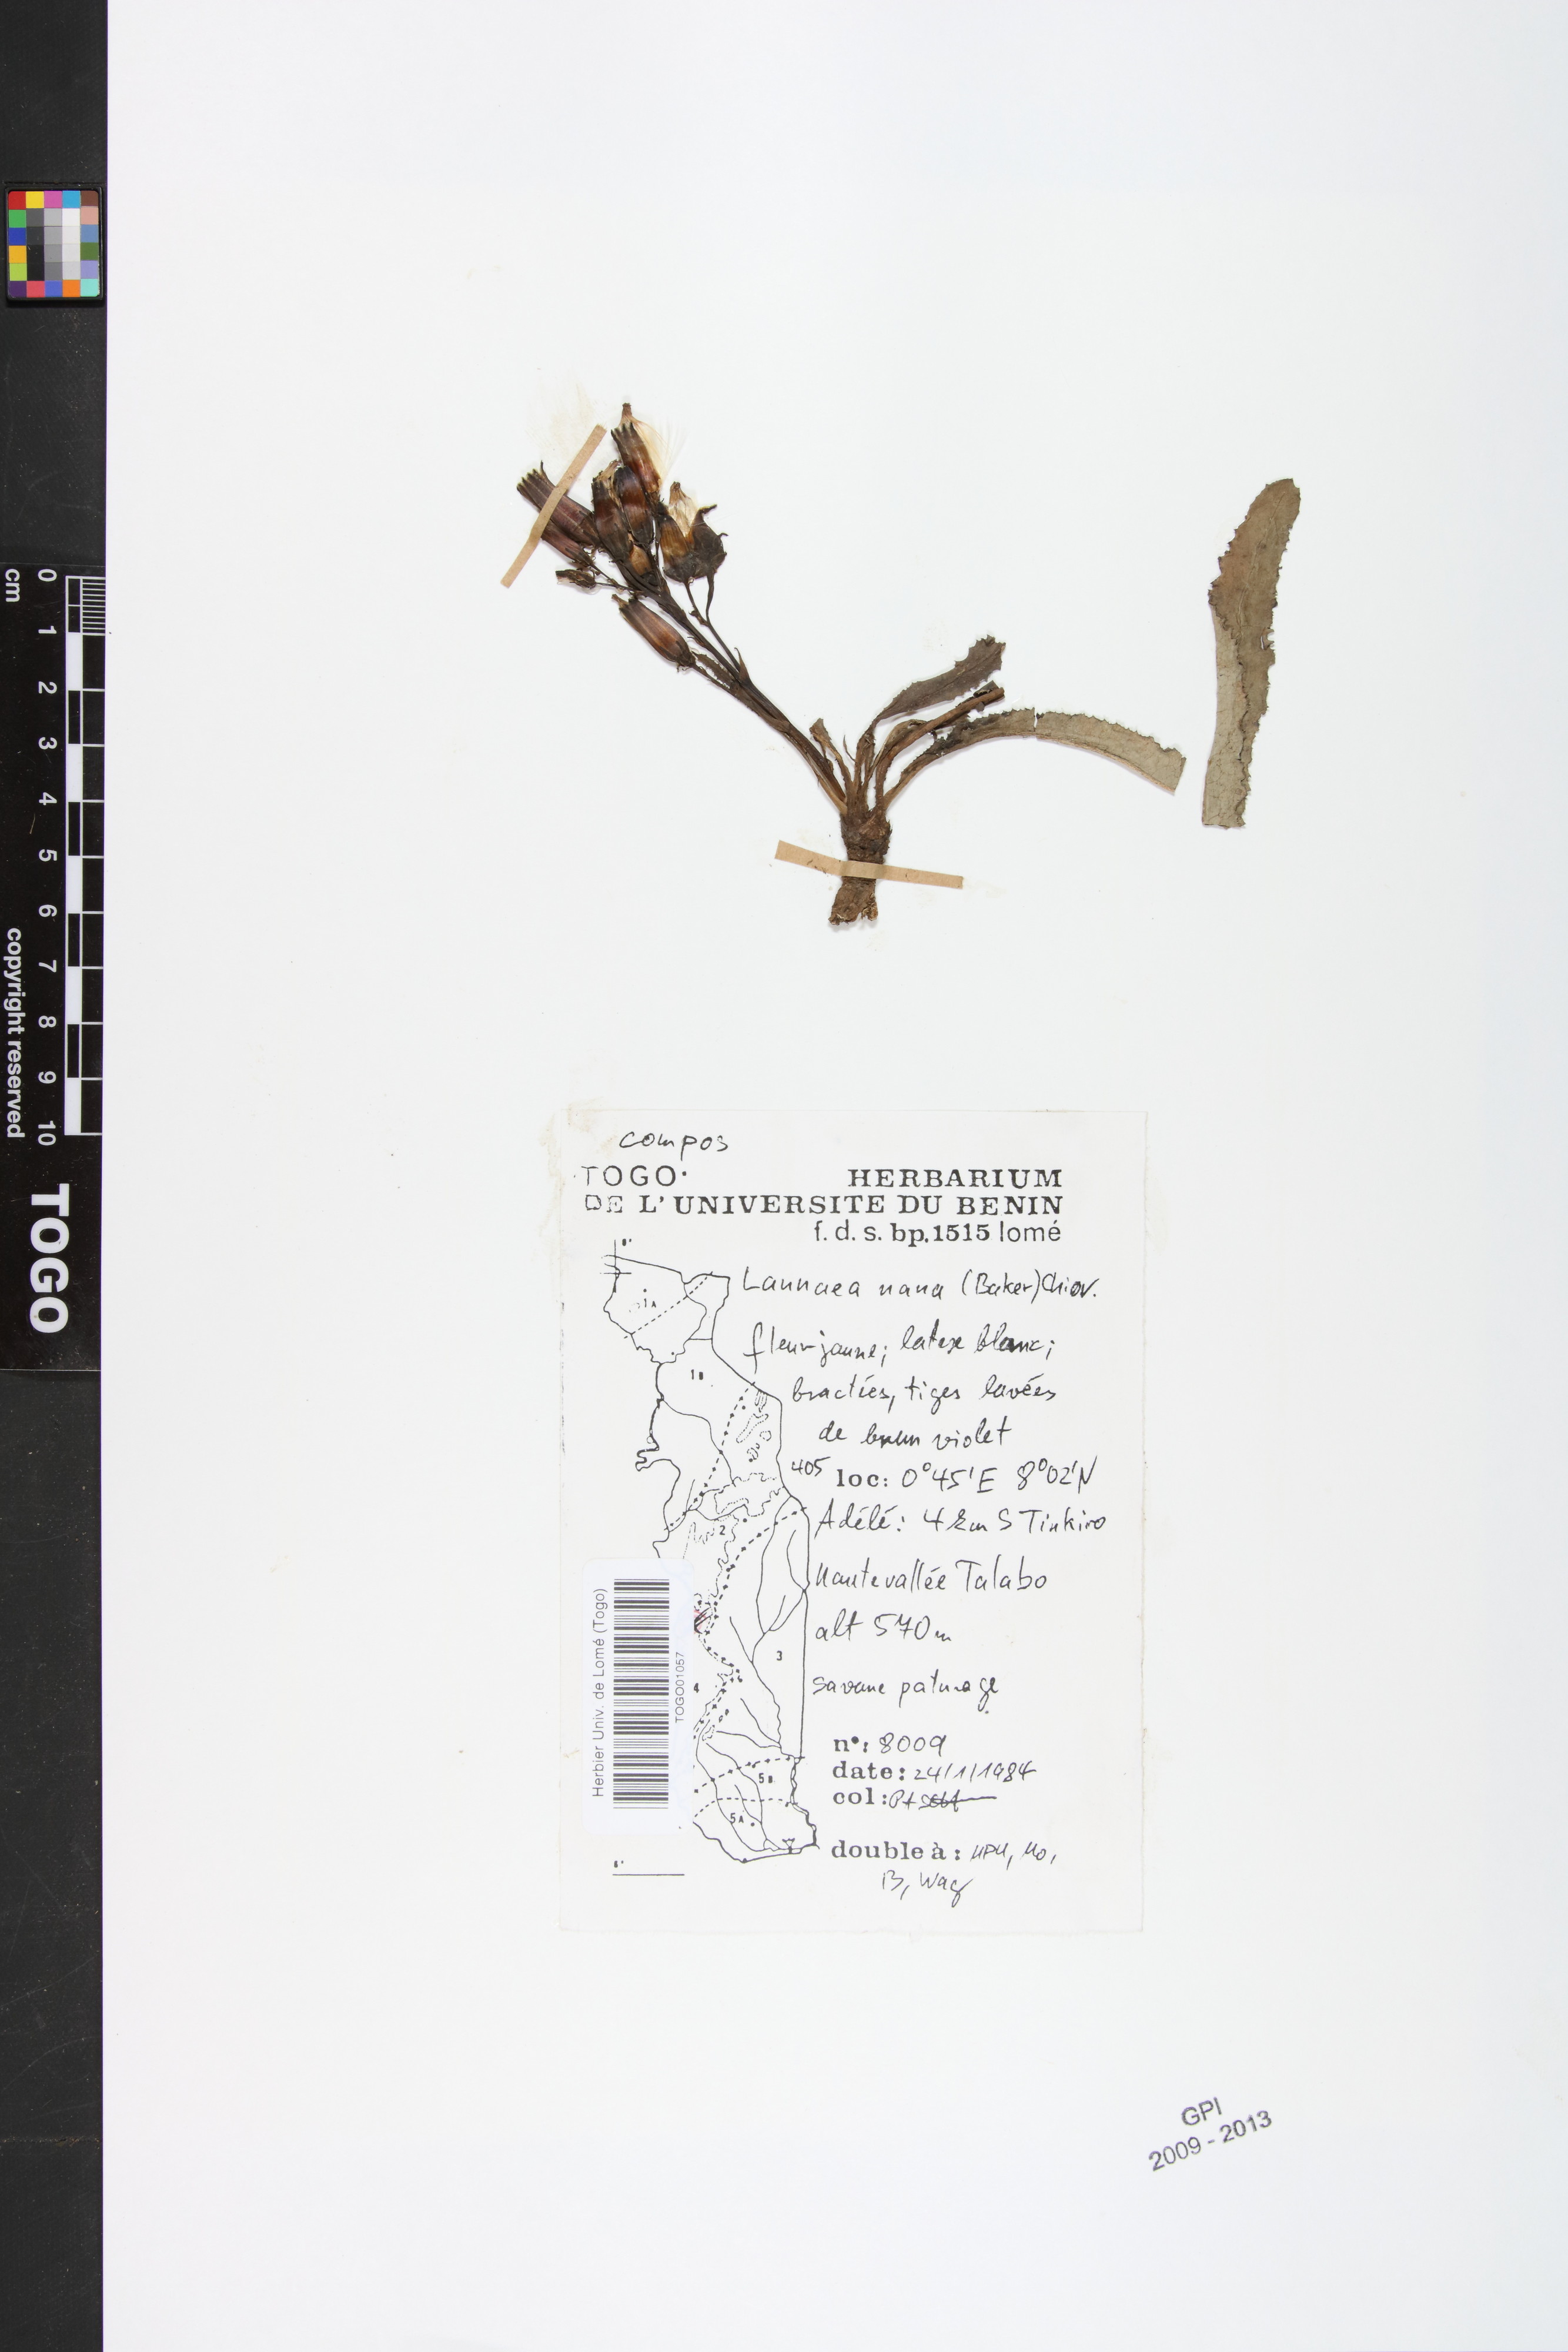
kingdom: Plantae
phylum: Tracheophyta
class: Magnoliopsida
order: Asterales
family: Asteraceae
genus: Launaea
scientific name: Launaea nana
